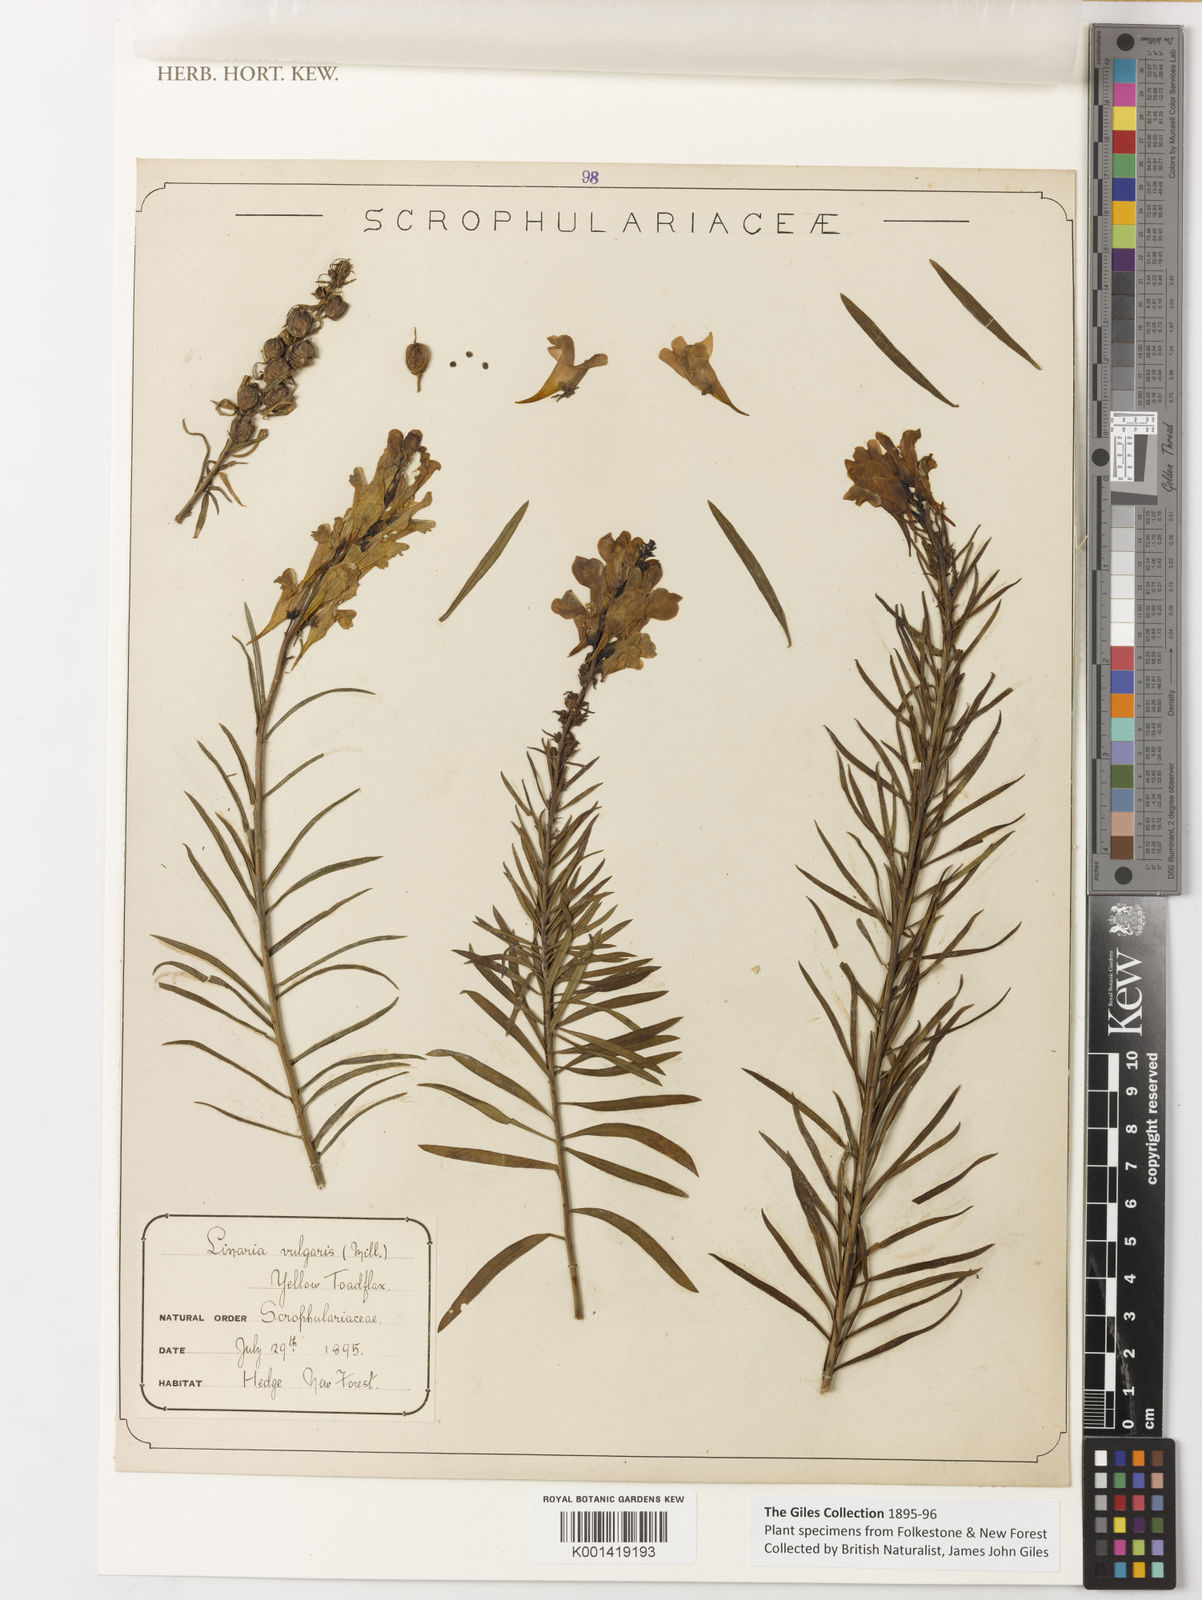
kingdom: Plantae
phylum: Tracheophyta
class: Magnoliopsida
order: Lamiales
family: Plantaginaceae
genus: Linaria
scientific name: Linaria vulgaris
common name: Butter and eggs
